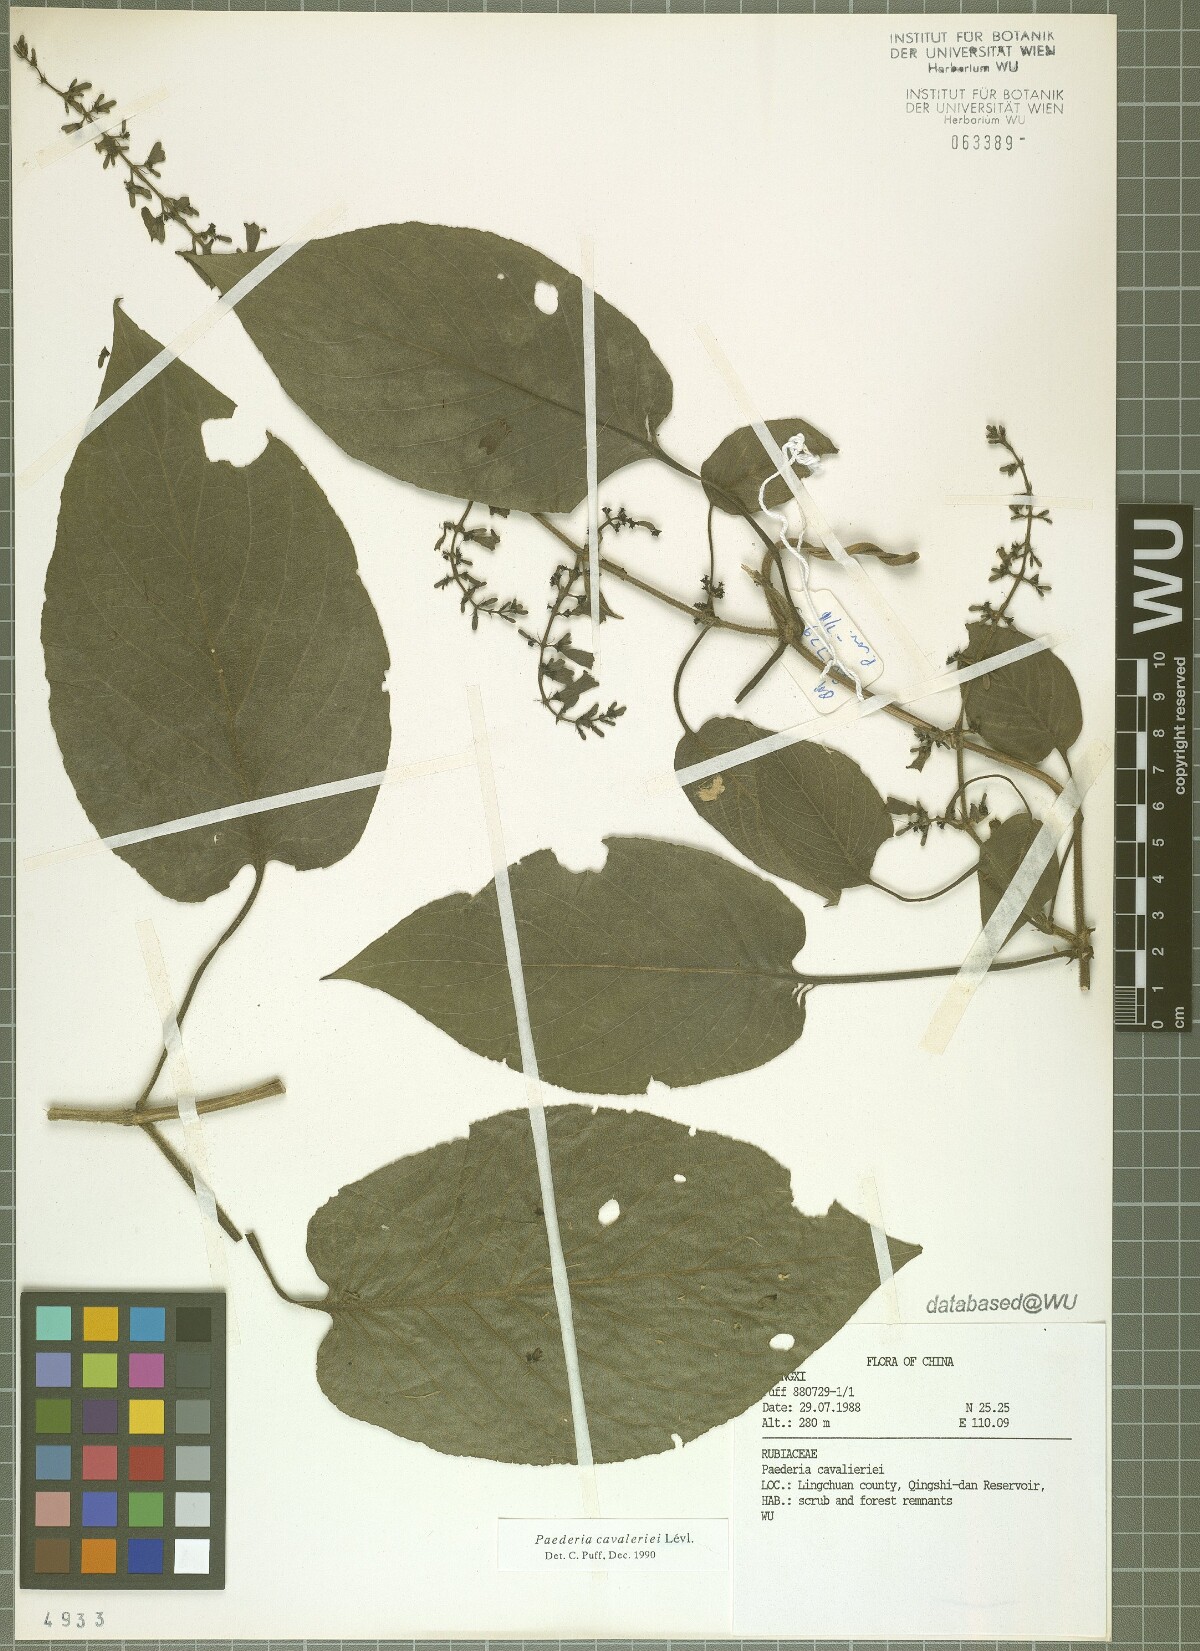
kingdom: Plantae
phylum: Tracheophyta
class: Magnoliopsida
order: Gentianales
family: Rubiaceae
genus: Paederia
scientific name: Paederia cavaleriei
